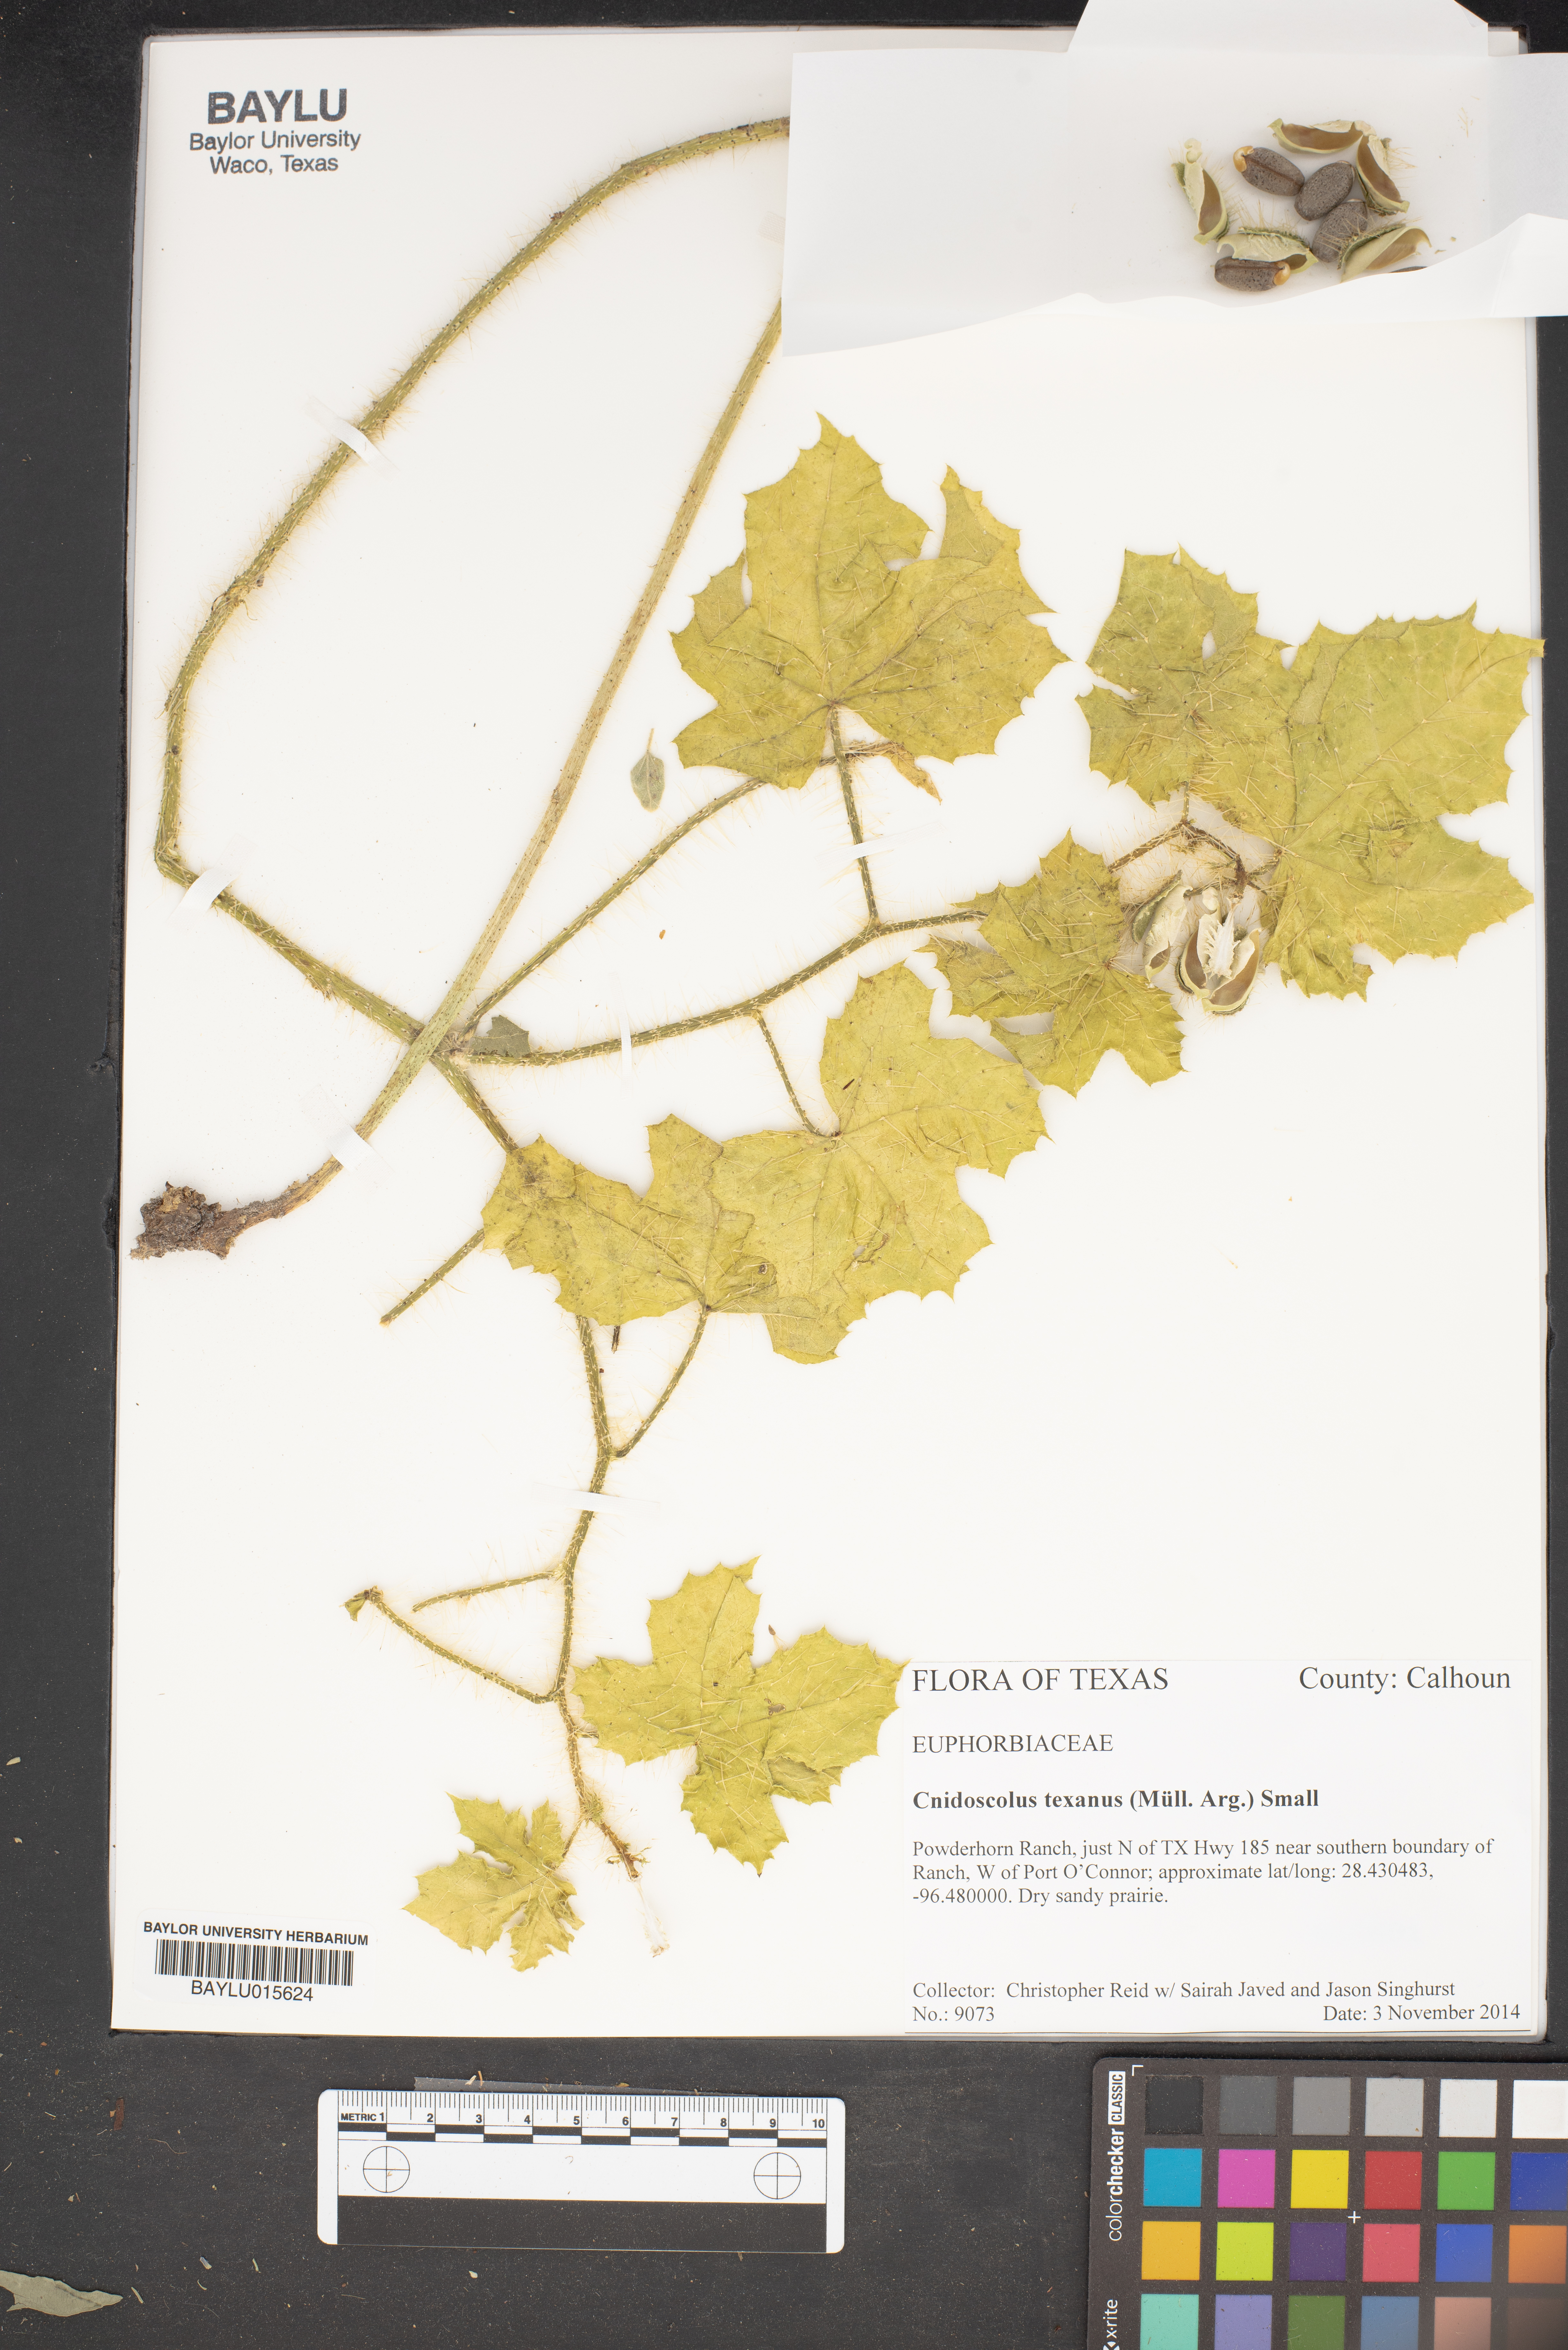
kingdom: Plantae
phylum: Tracheophyta
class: Magnoliopsida
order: Malpighiales
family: Euphorbiaceae
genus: Cnidoscolus
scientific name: Cnidoscolus texanus
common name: Texas bull-nettle
